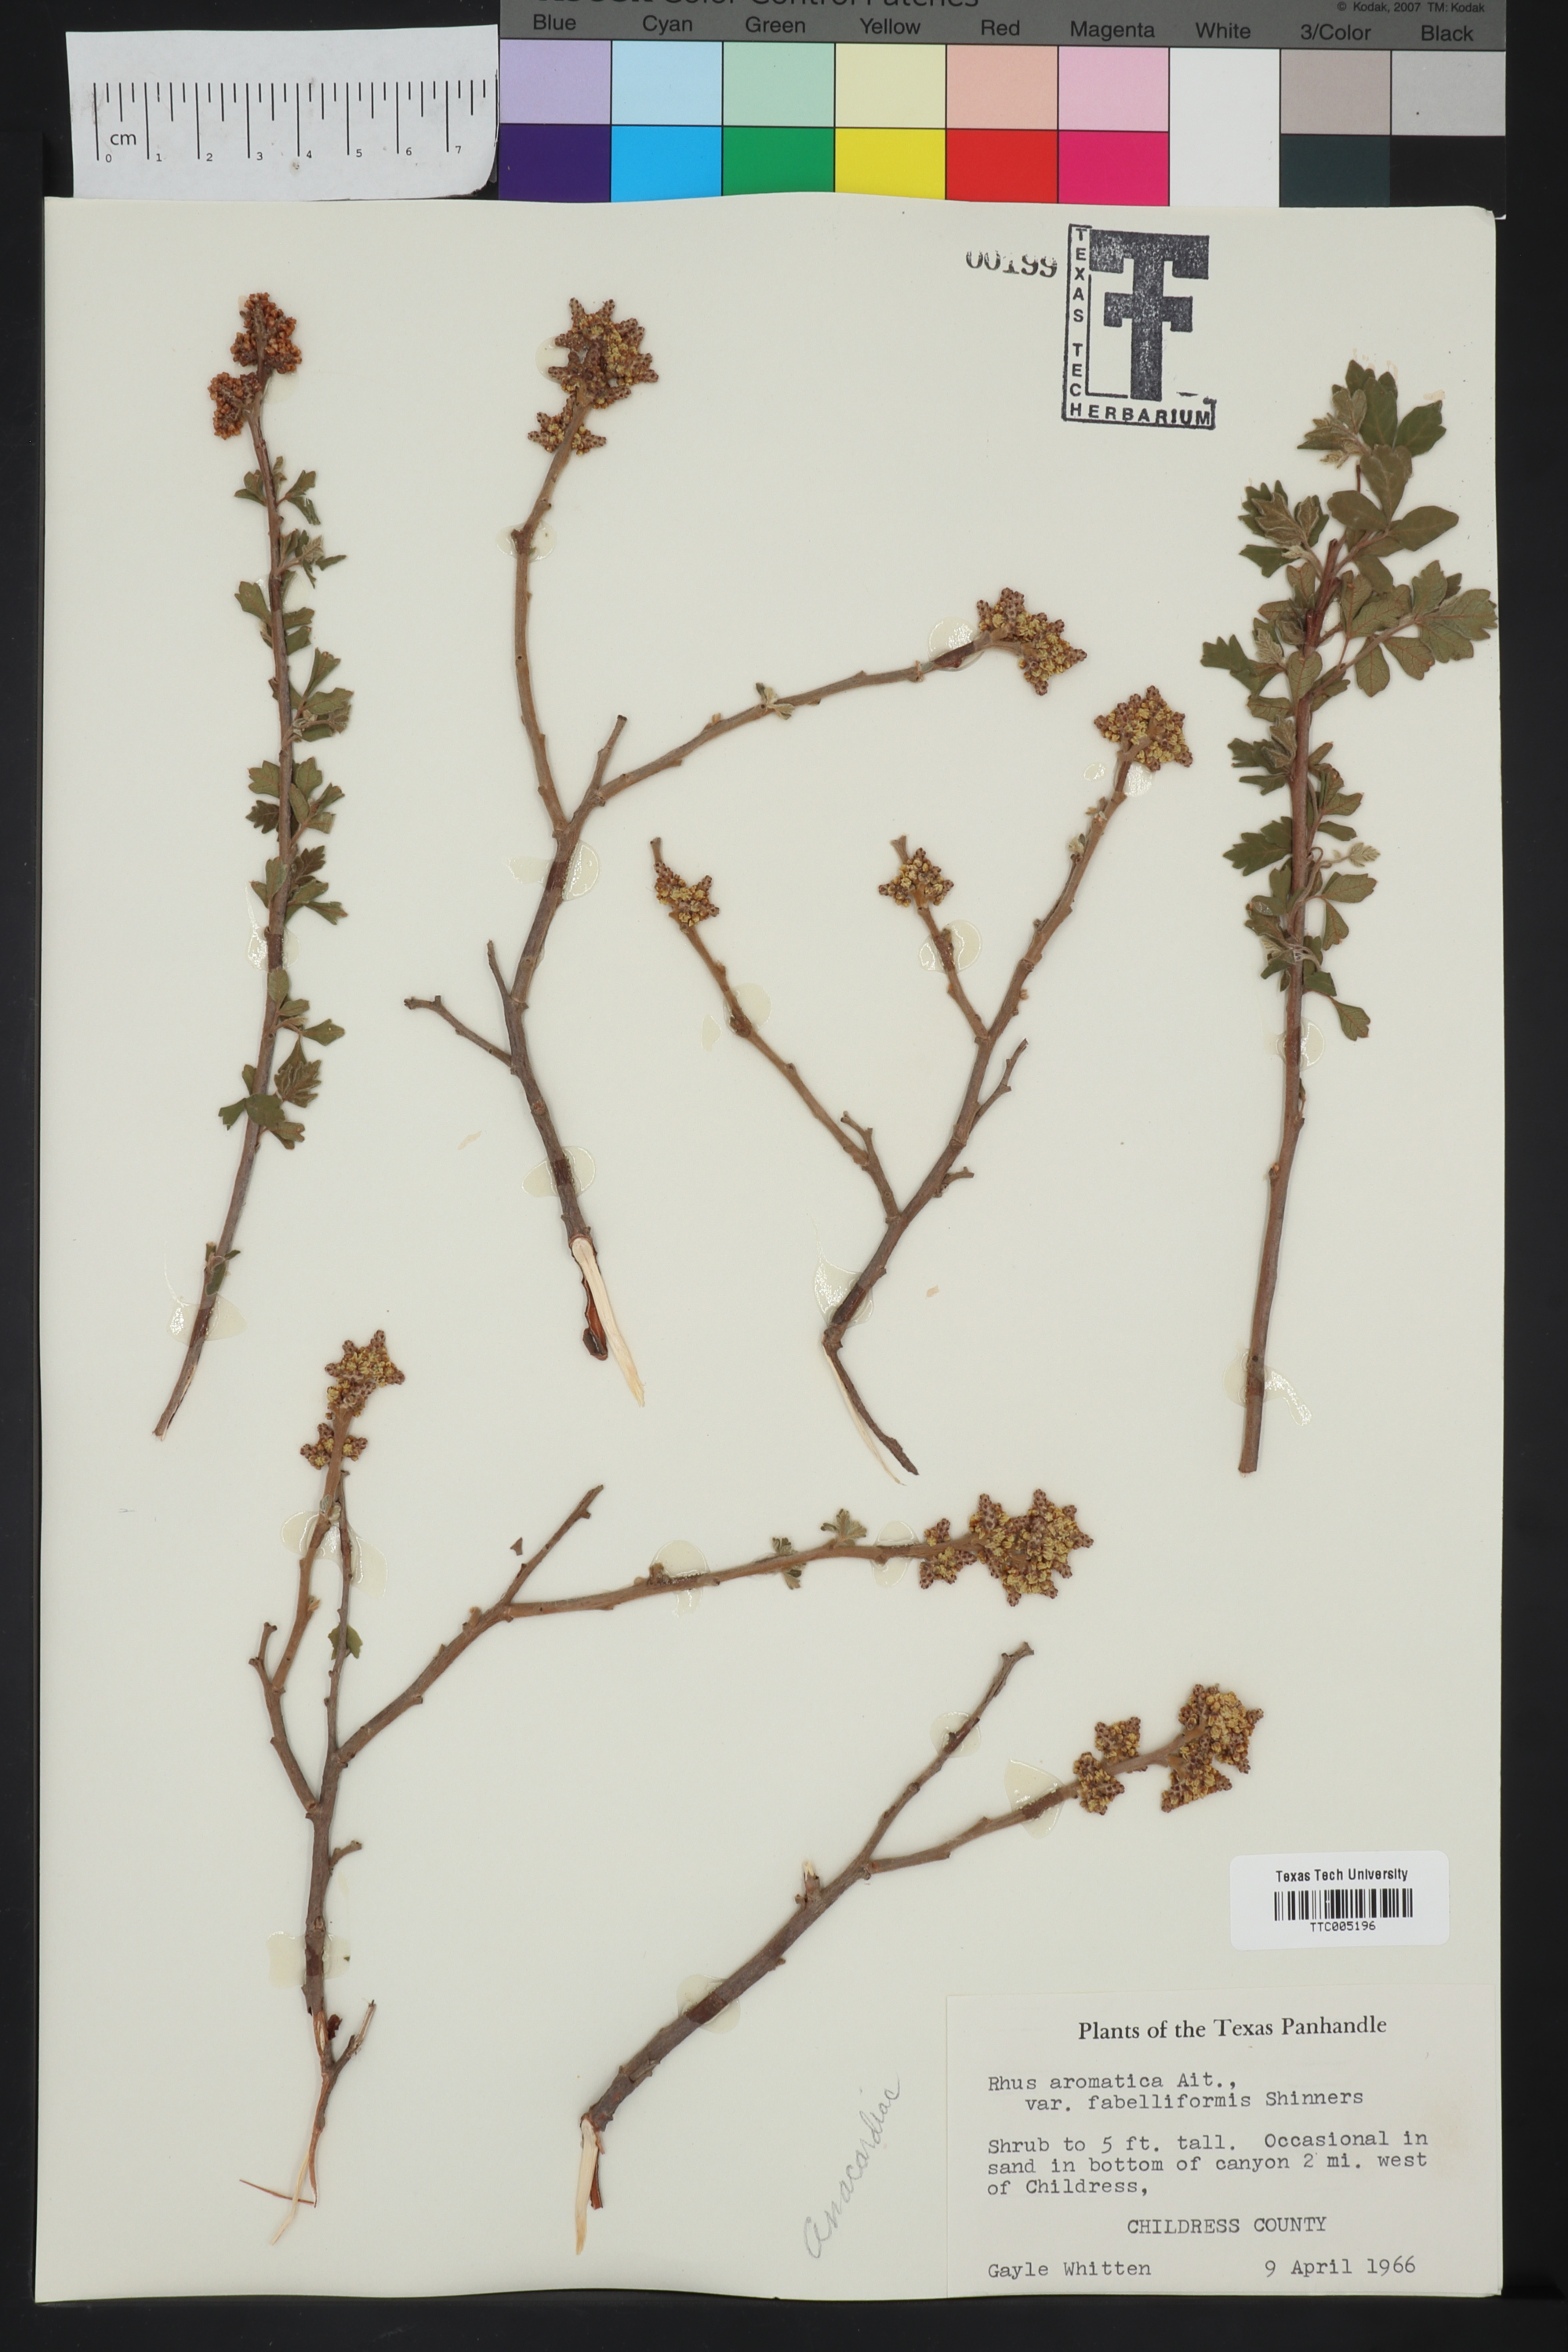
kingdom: Plantae
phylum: Tracheophyta
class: Magnoliopsida
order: Sapindales
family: Anacardiaceae
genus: Rhus
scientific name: Rhus aromatica
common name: Aromatic sumac
